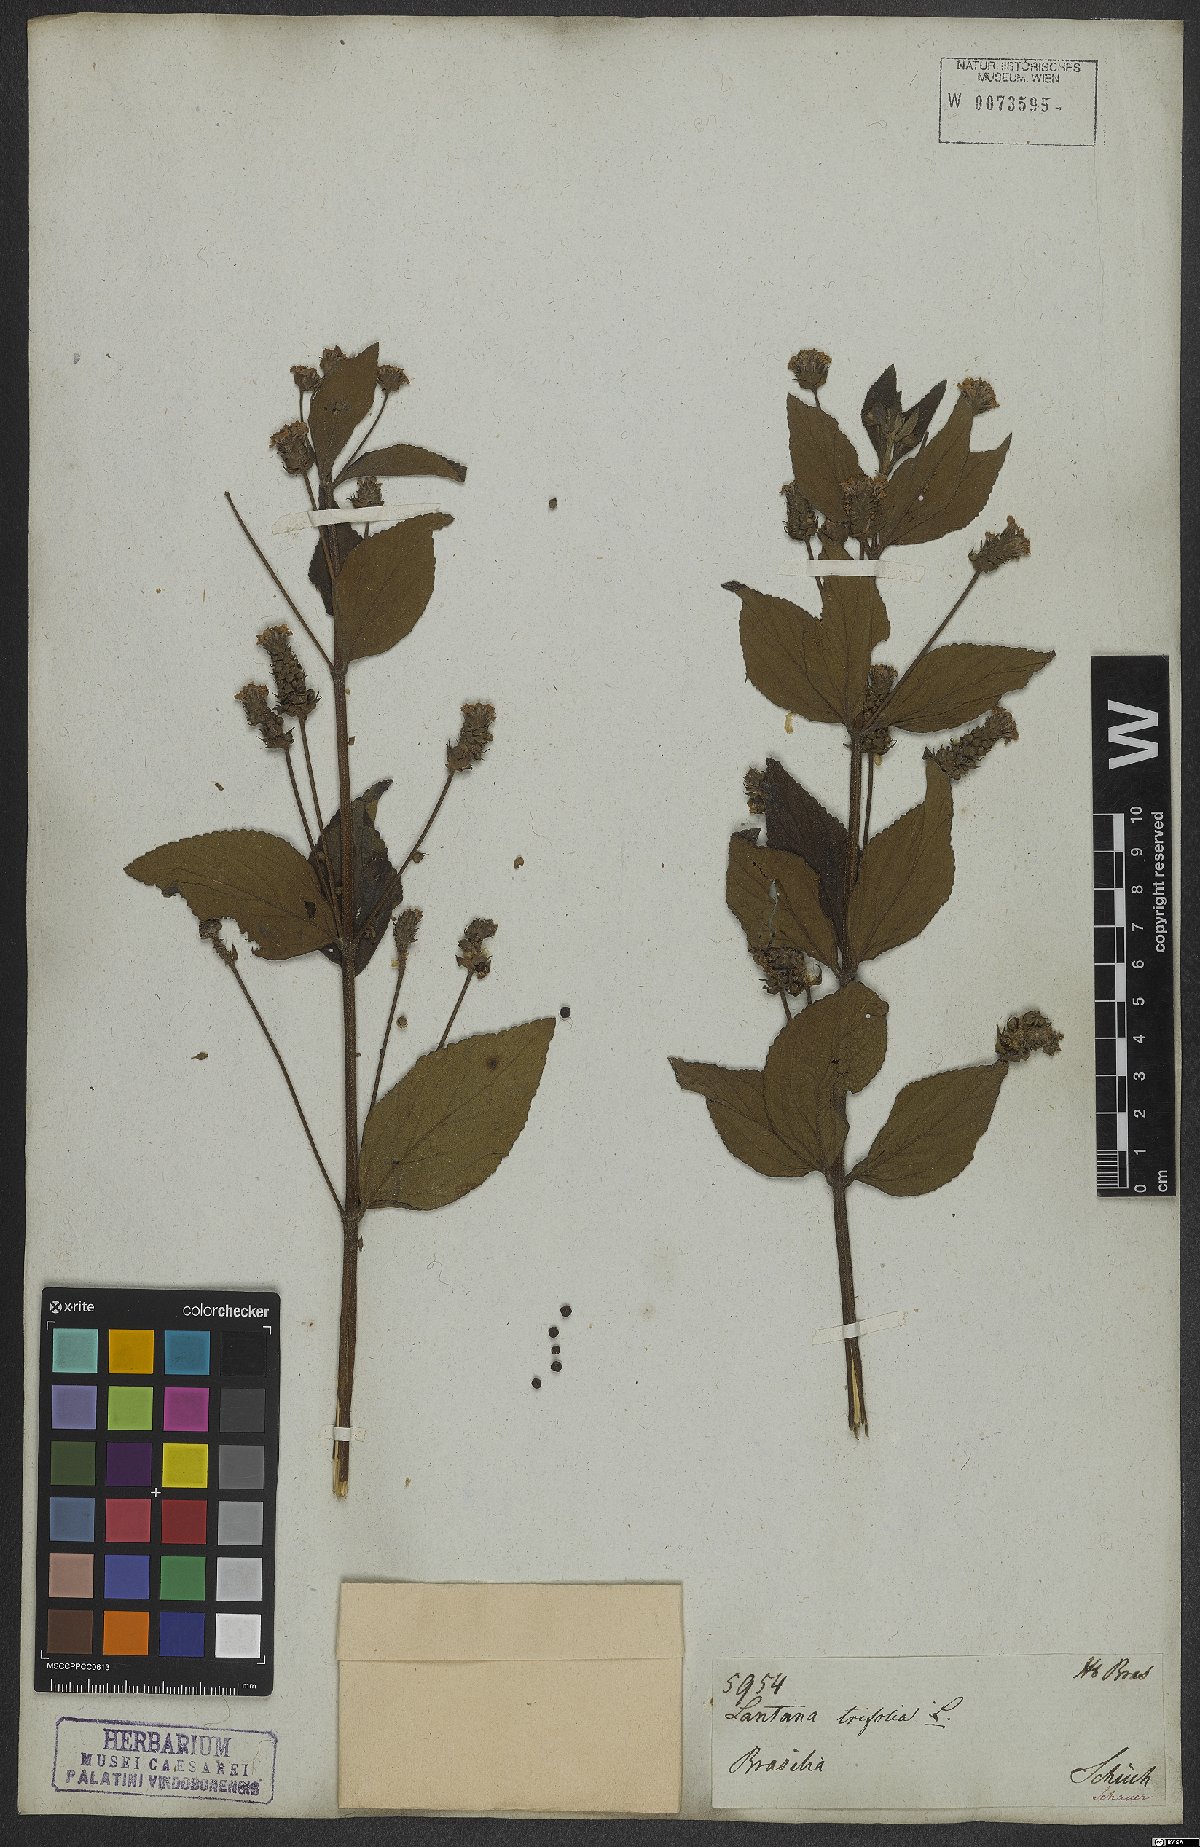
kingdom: Plantae
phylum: Tracheophyta
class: Magnoliopsida
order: Lamiales
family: Verbenaceae
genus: Lantana
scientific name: Lantana trifolia
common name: Sweet-sage
